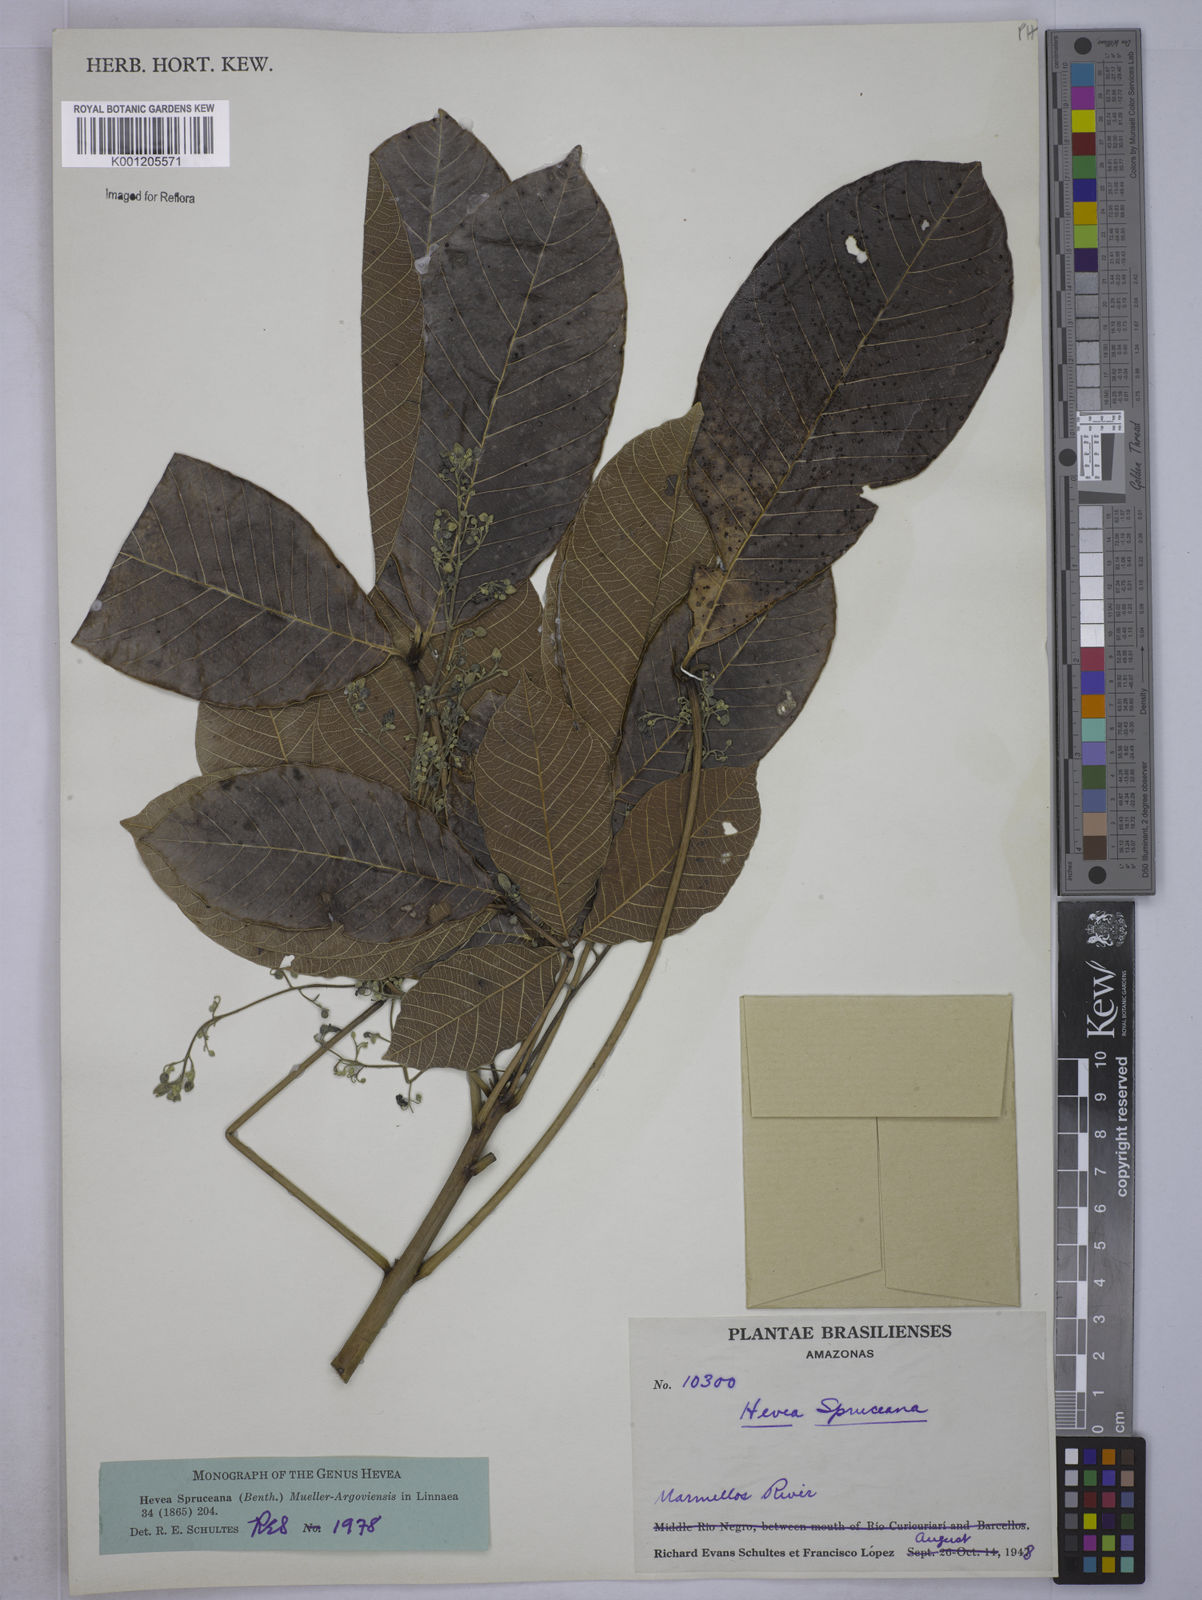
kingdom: Plantae
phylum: Tracheophyta
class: Magnoliopsida
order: Malpighiales
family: Euphorbiaceae
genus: Hevea
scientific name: Hevea
